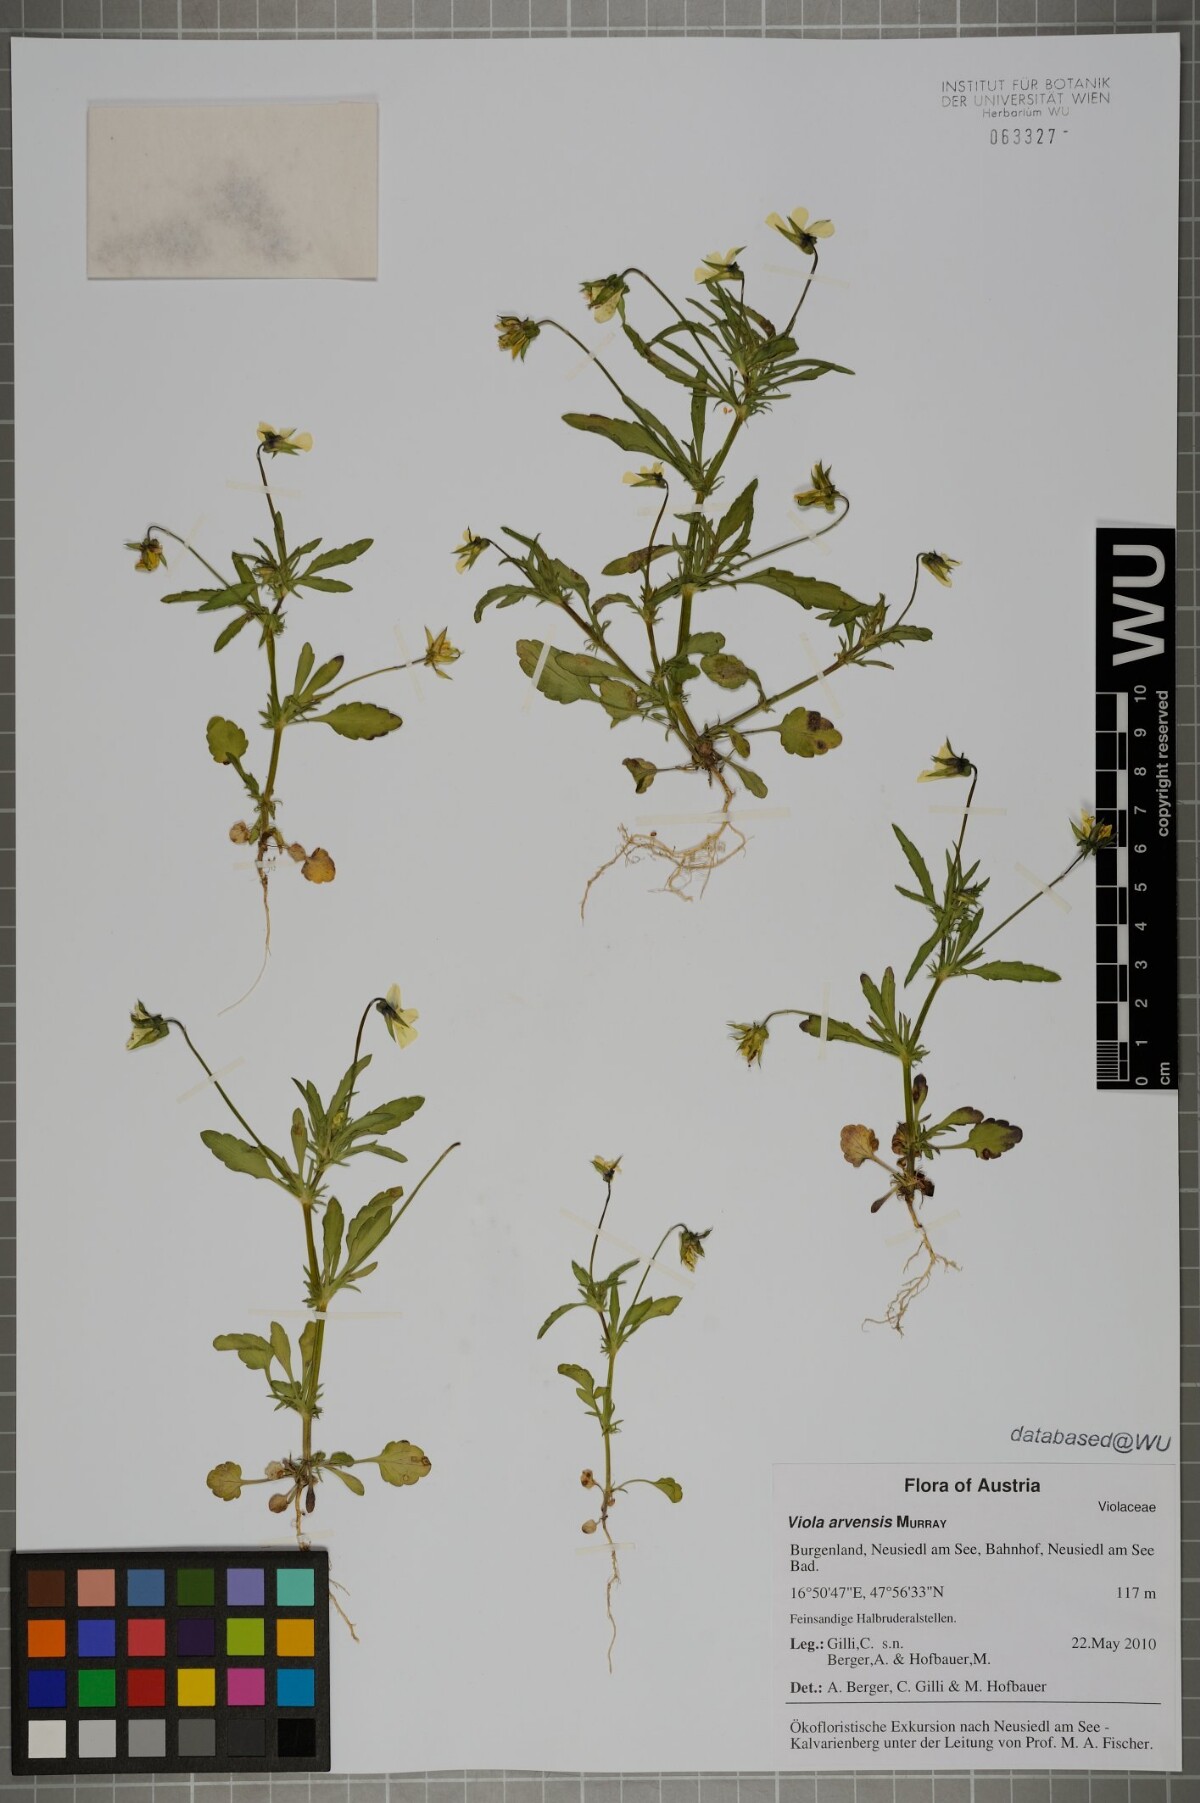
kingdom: Plantae
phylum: Tracheophyta
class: Magnoliopsida
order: Malpighiales
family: Violaceae
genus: Viola
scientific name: Viola arvensis
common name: Field pansy
